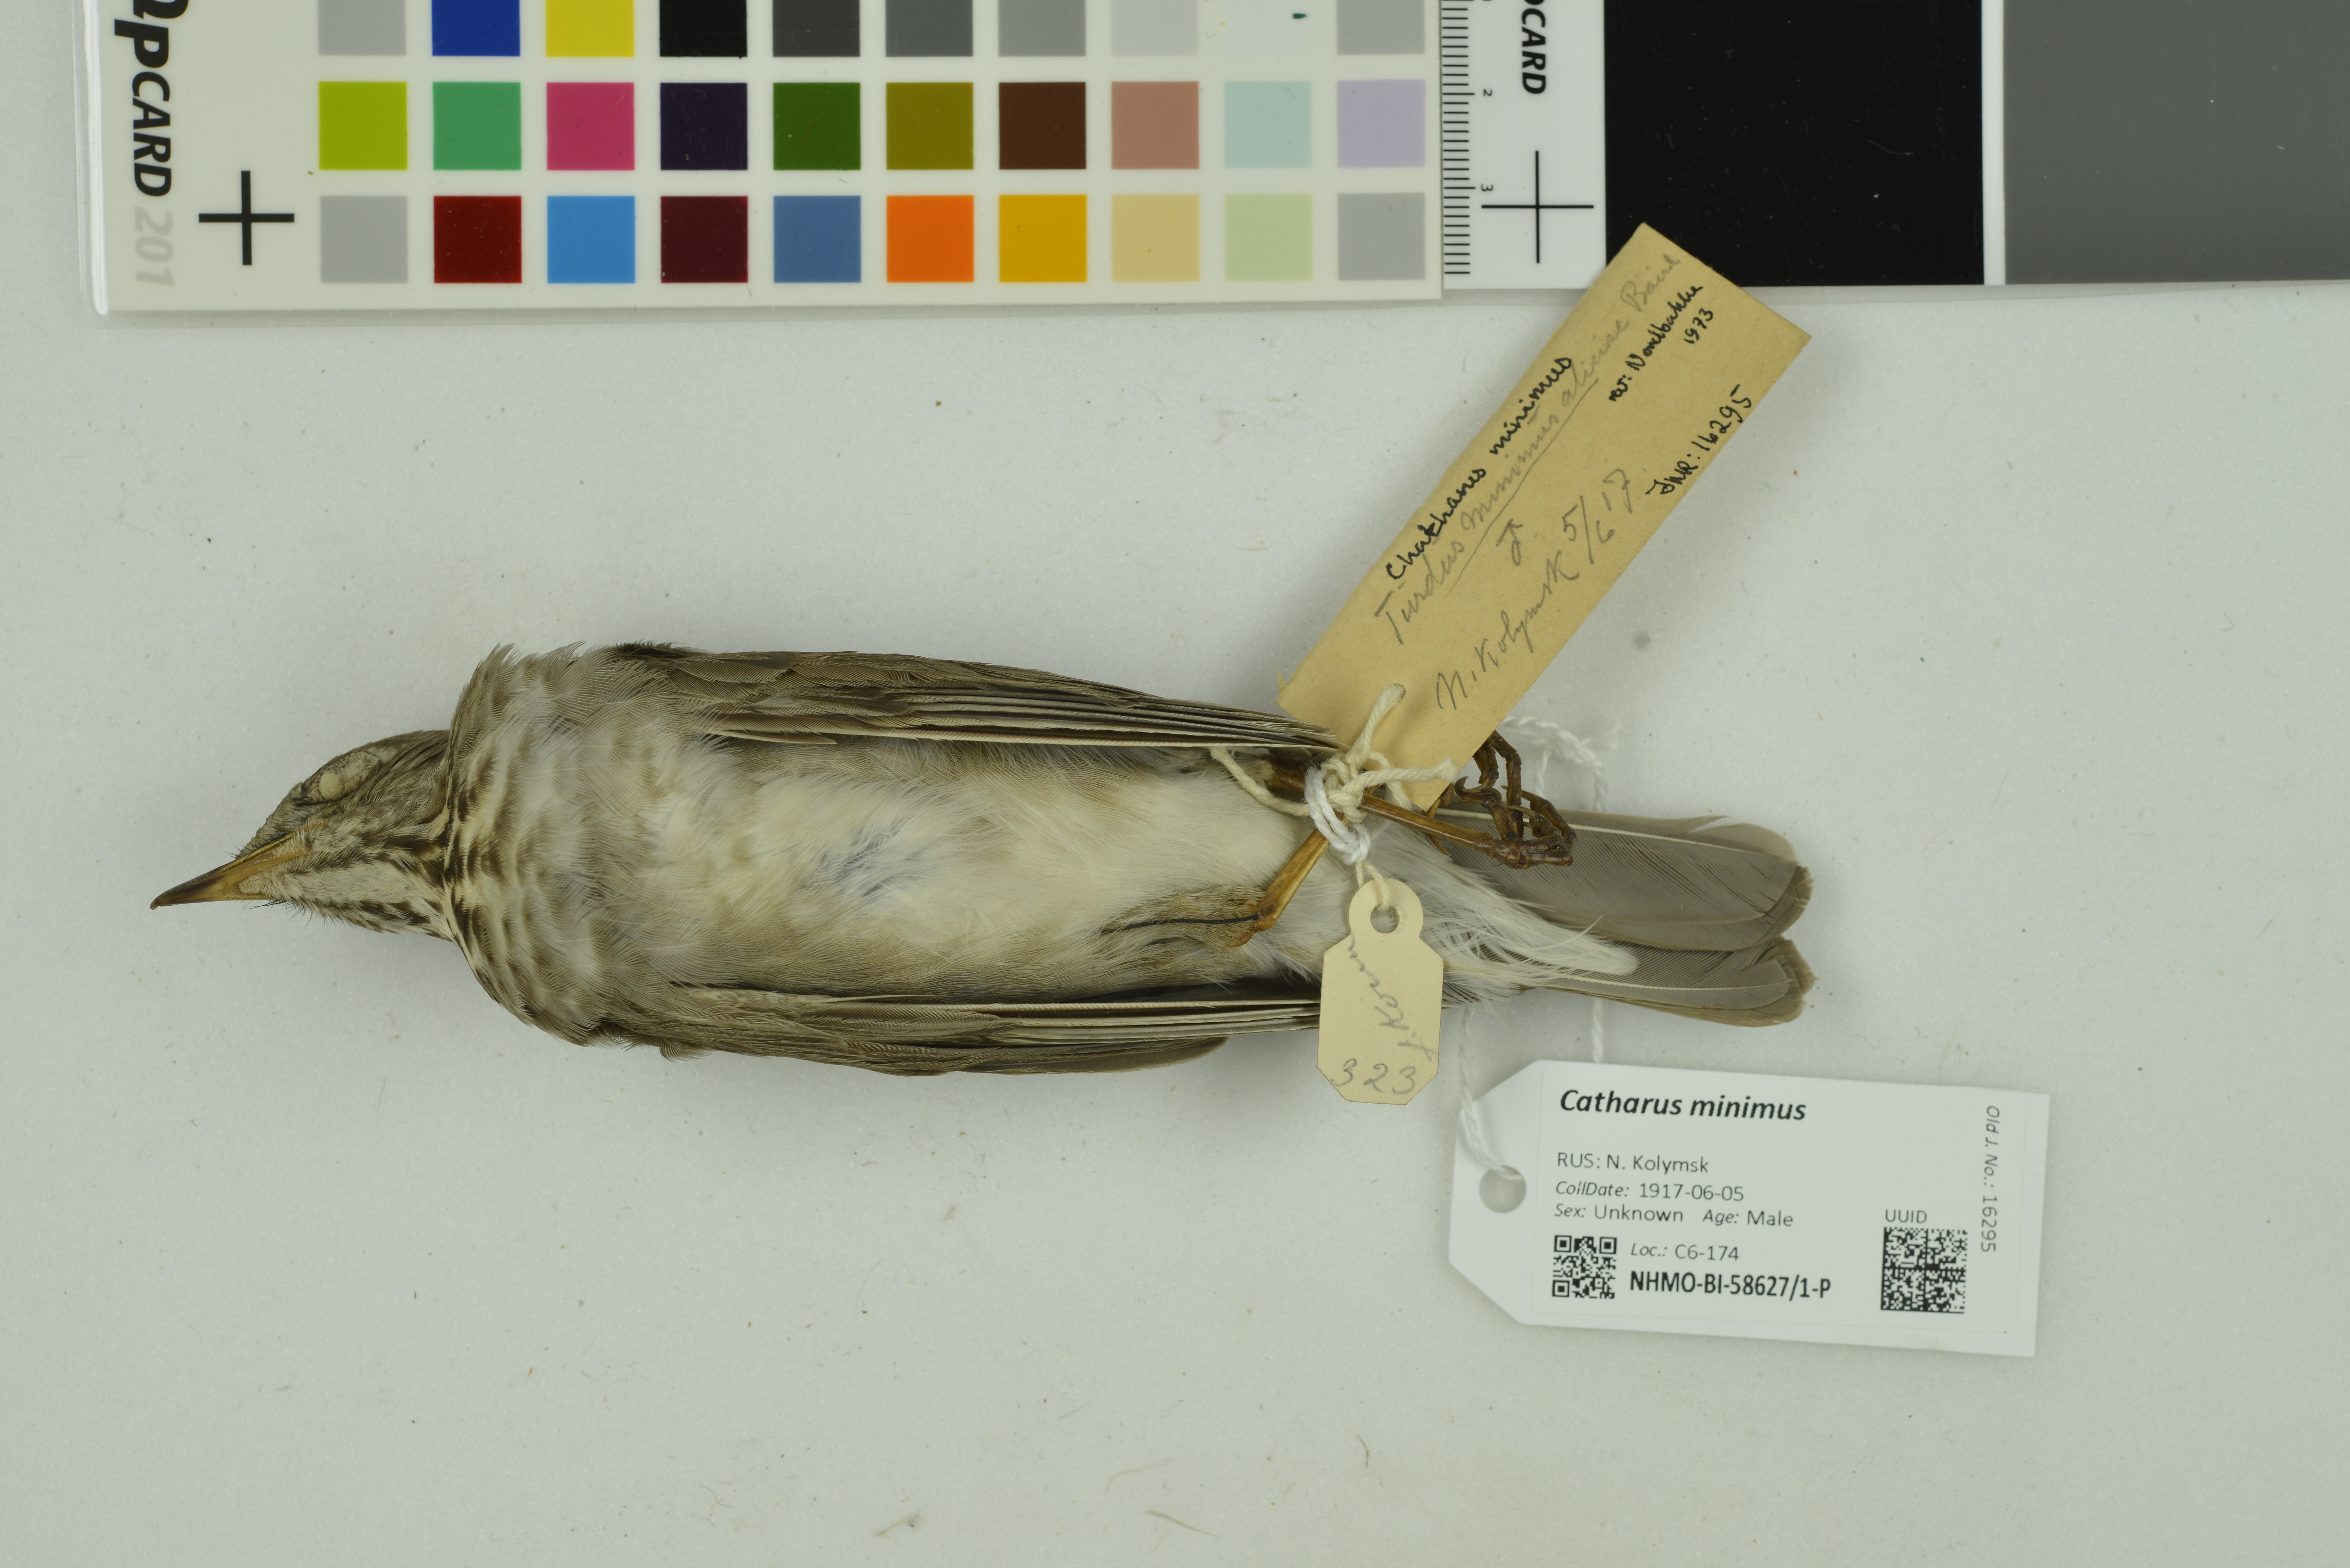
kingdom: Animalia
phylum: Chordata
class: Aves
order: Passeriformes
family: Turdidae
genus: Catharus
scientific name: Catharus minimus
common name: Grey-cheeked thrush
